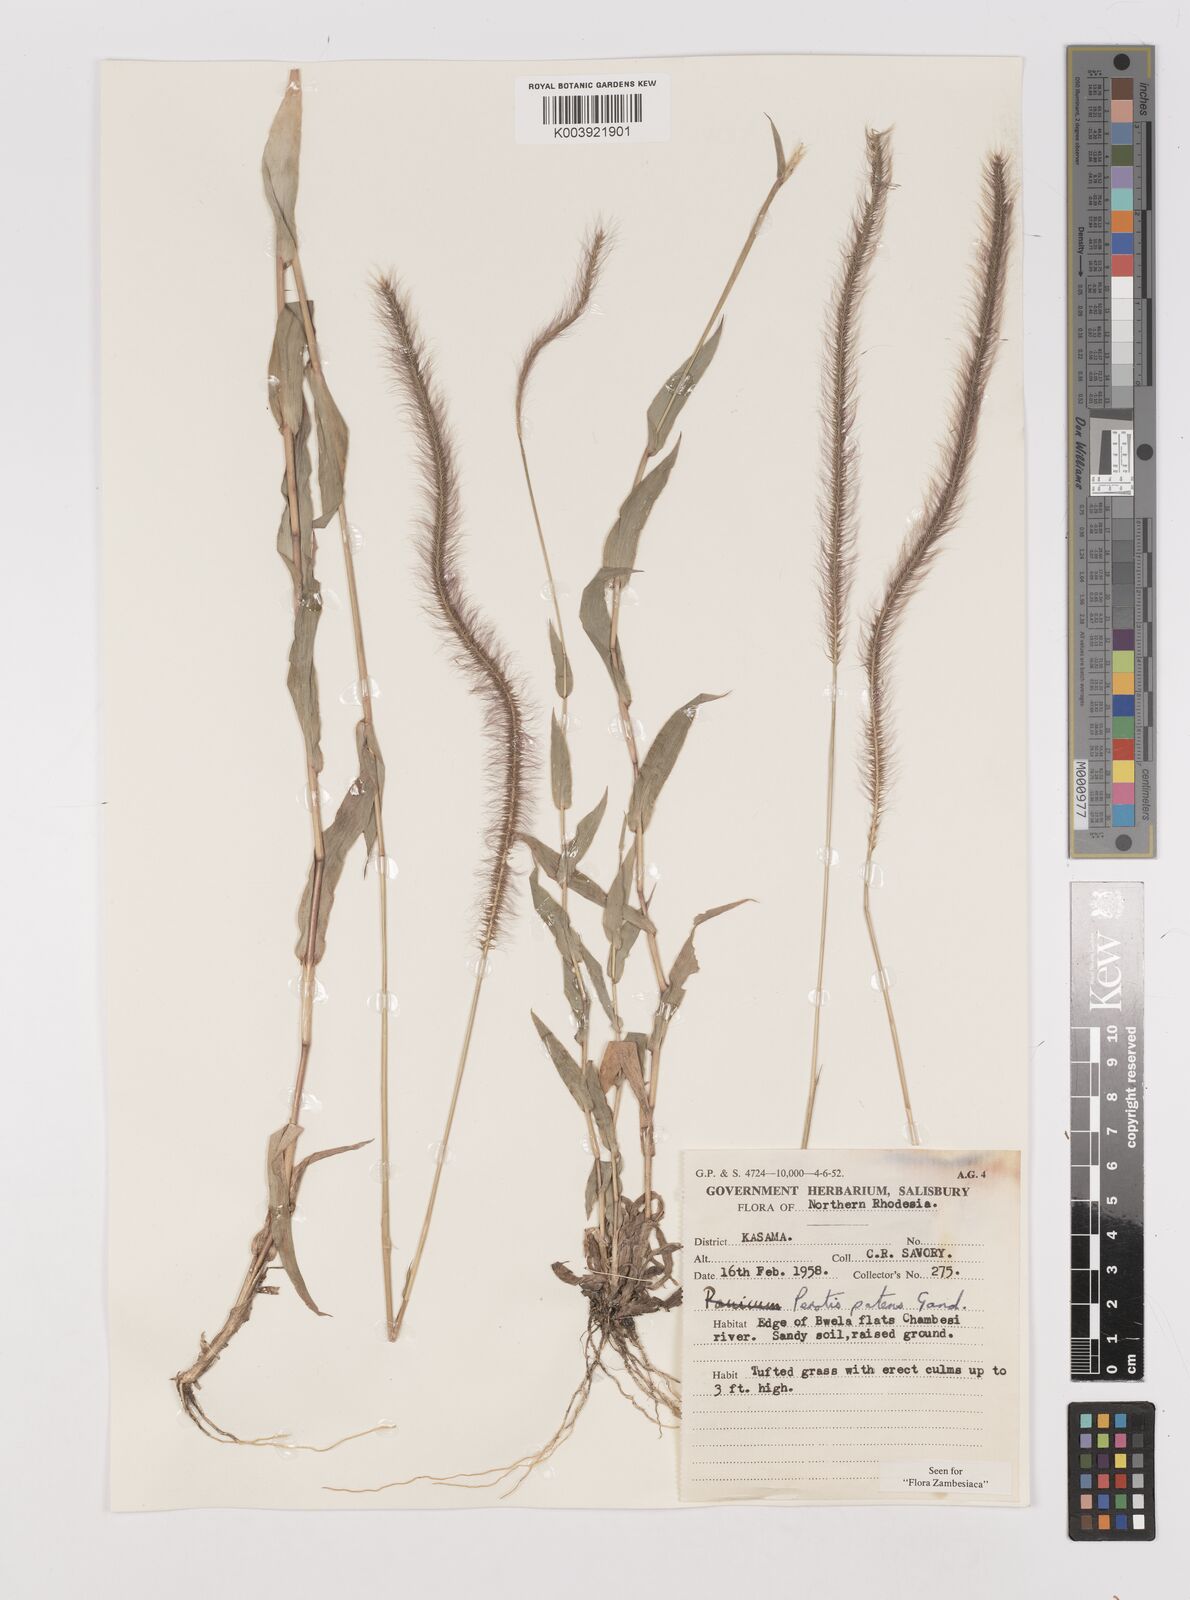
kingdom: Plantae
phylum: Tracheophyta
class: Liliopsida
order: Poales
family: Poaceae
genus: Perotis
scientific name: Perotis patens
